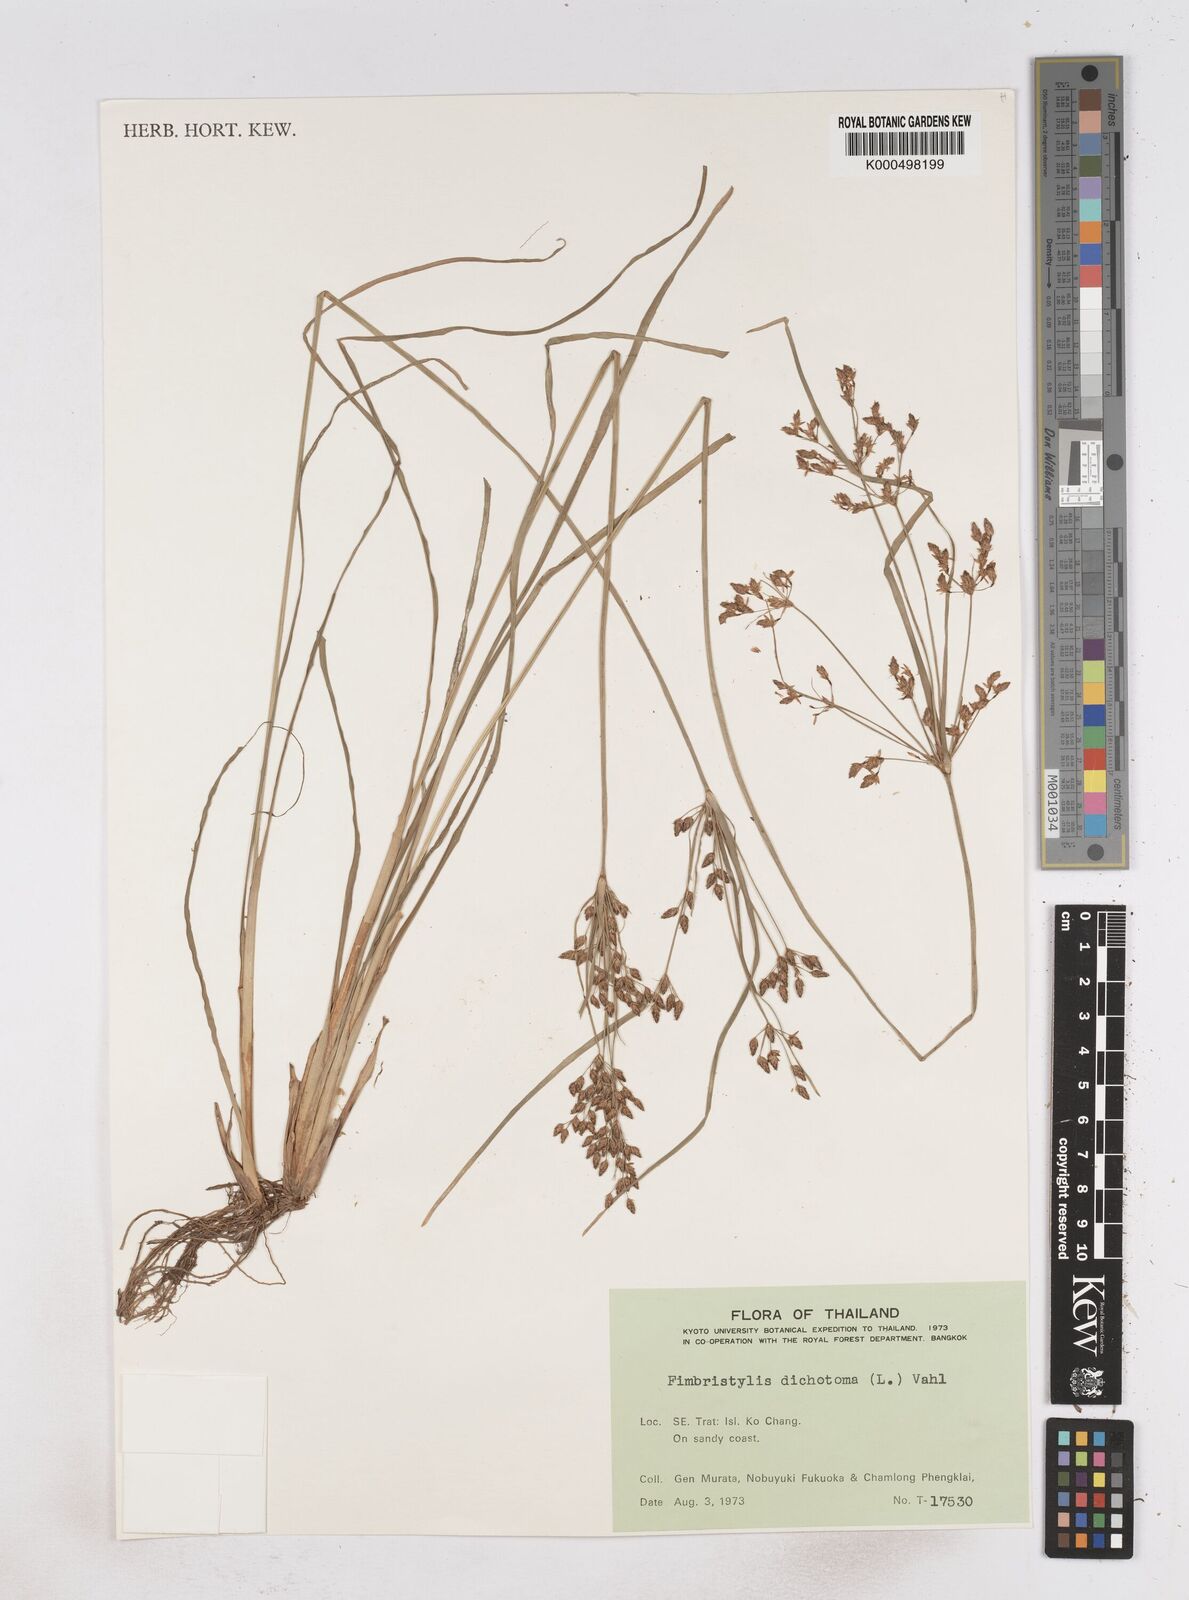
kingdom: Plantae
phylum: Tracheophyta
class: Liliopsida
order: Poales
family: Cyperaceae
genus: Fimbristylis
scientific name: Fimbristylis dichotoma
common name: Forked fimbry
